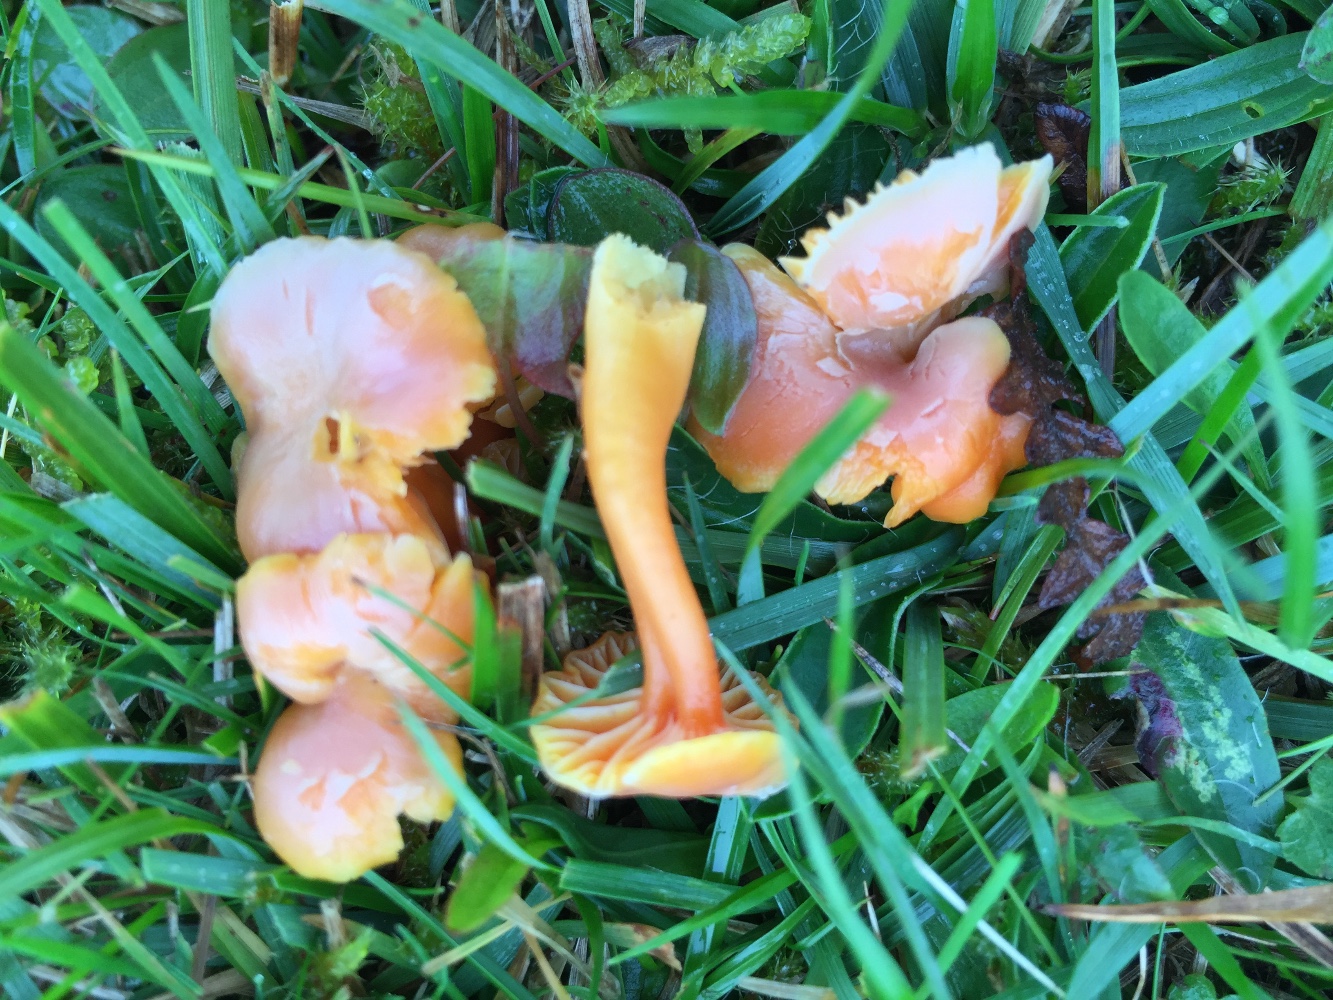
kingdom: Fungi
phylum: Basidiomycota
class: Agaricomycetes
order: Agaricales
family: Hygrophoraceae
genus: Hygrocybe
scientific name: Hygrocybe reidii
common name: honning-vokshat
